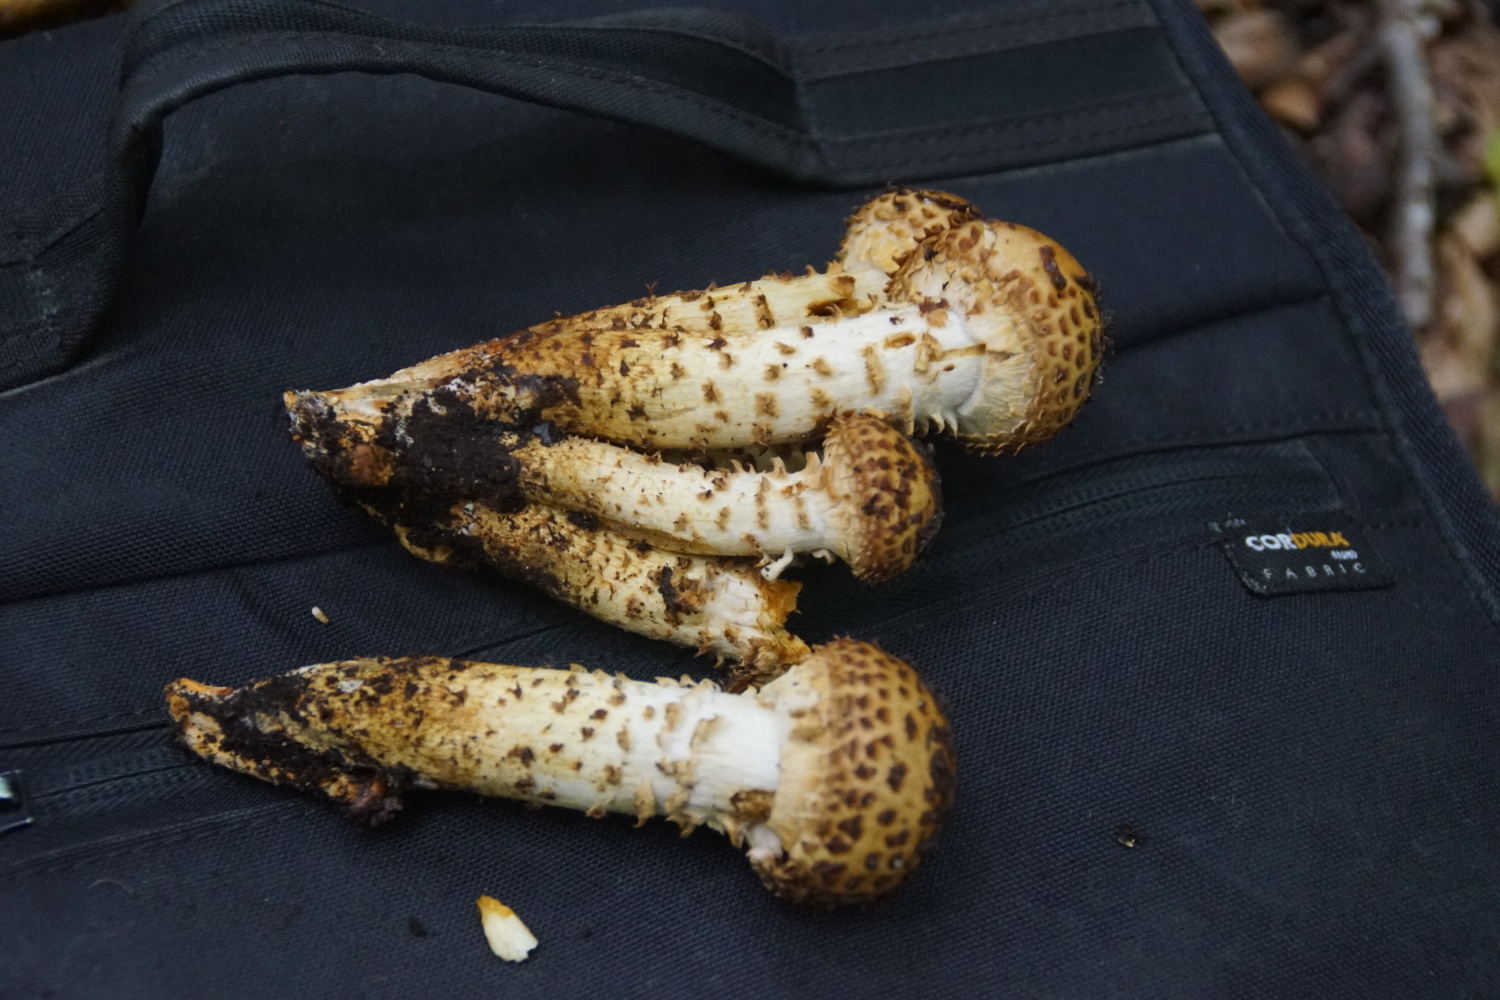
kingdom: Fungi
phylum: Basidiomycota
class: Agaricomycetes
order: Agaricales
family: Strophariaceae
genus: Pholiota
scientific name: Pholiota squarrosa
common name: krumskællet skælhat
